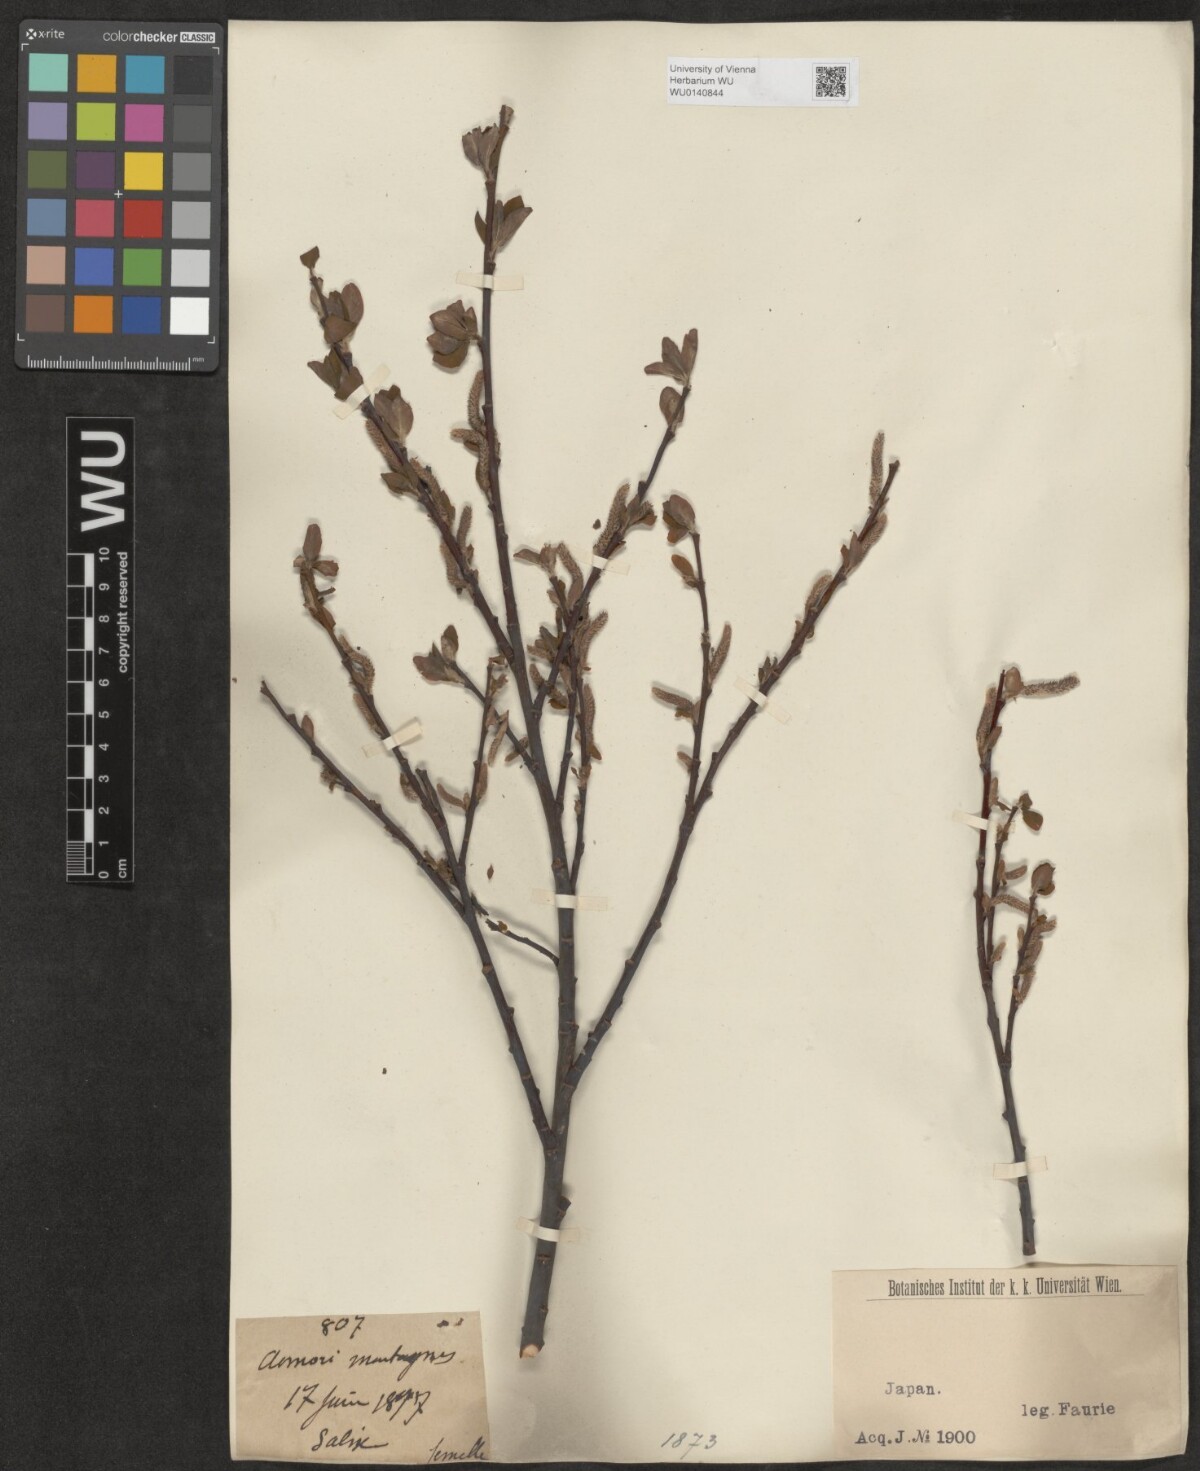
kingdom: Plantae
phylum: Tracheophyta
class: Magnoliopsida
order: Malpighiales
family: Salicaceae
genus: Salix
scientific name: Salix
